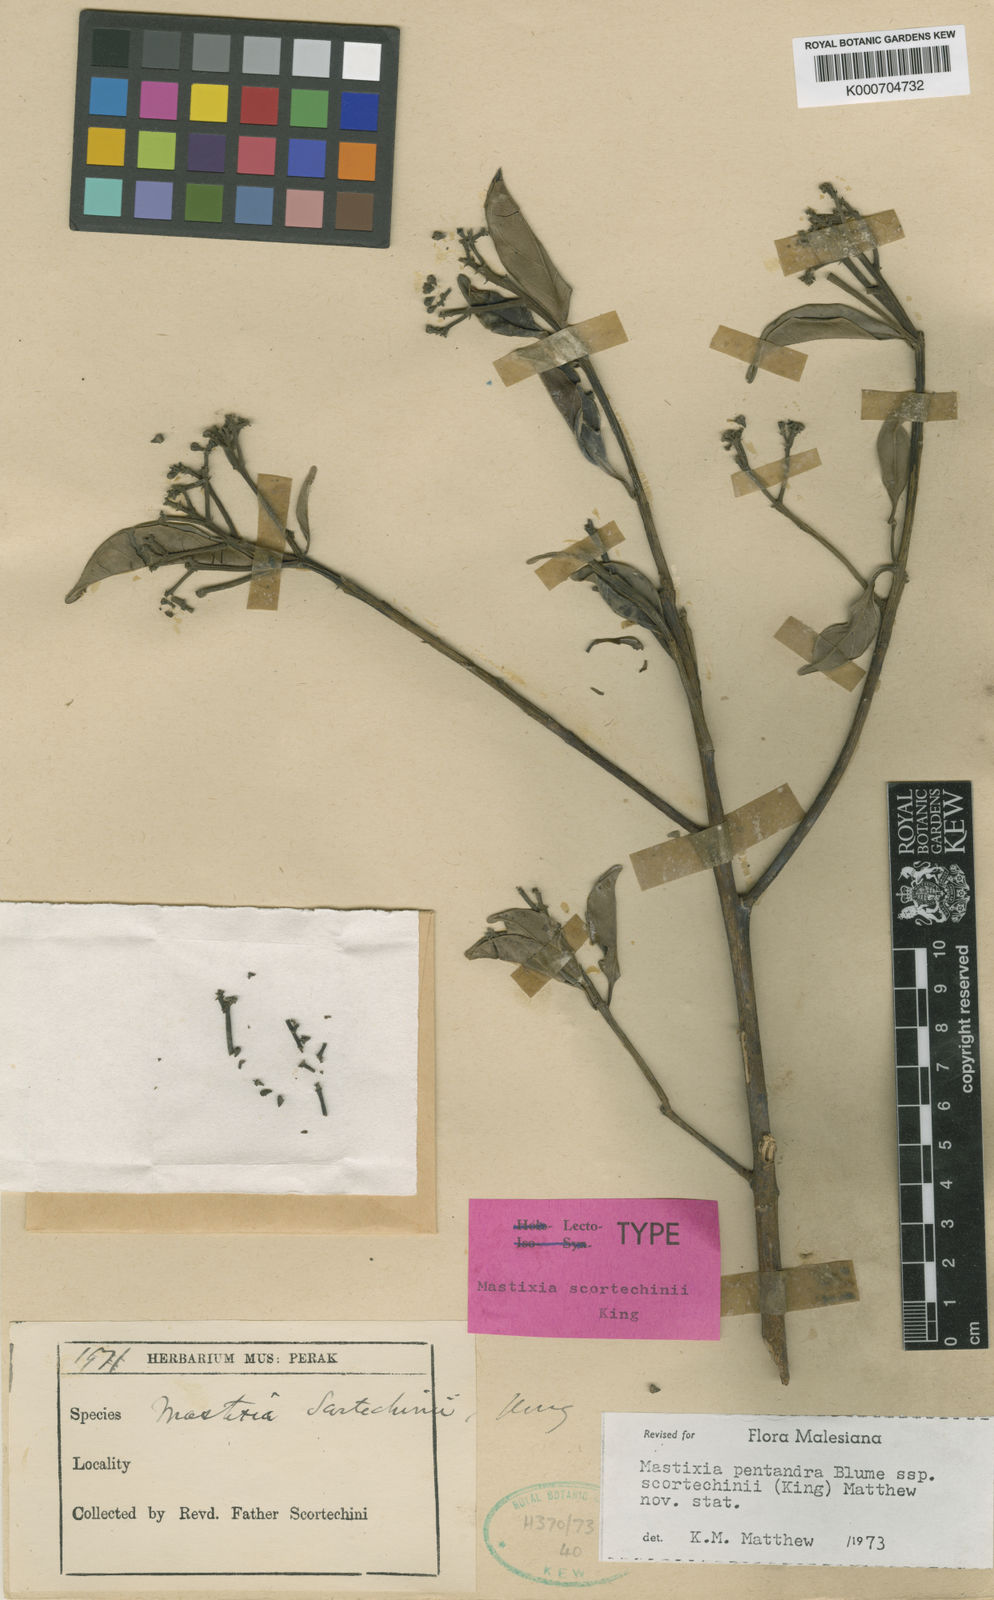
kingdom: Plantae
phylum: Tracheophyta
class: Magnoliopsida
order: Cornales
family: Nyssaceae
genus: Mastixia
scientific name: Mastixia pentandra
